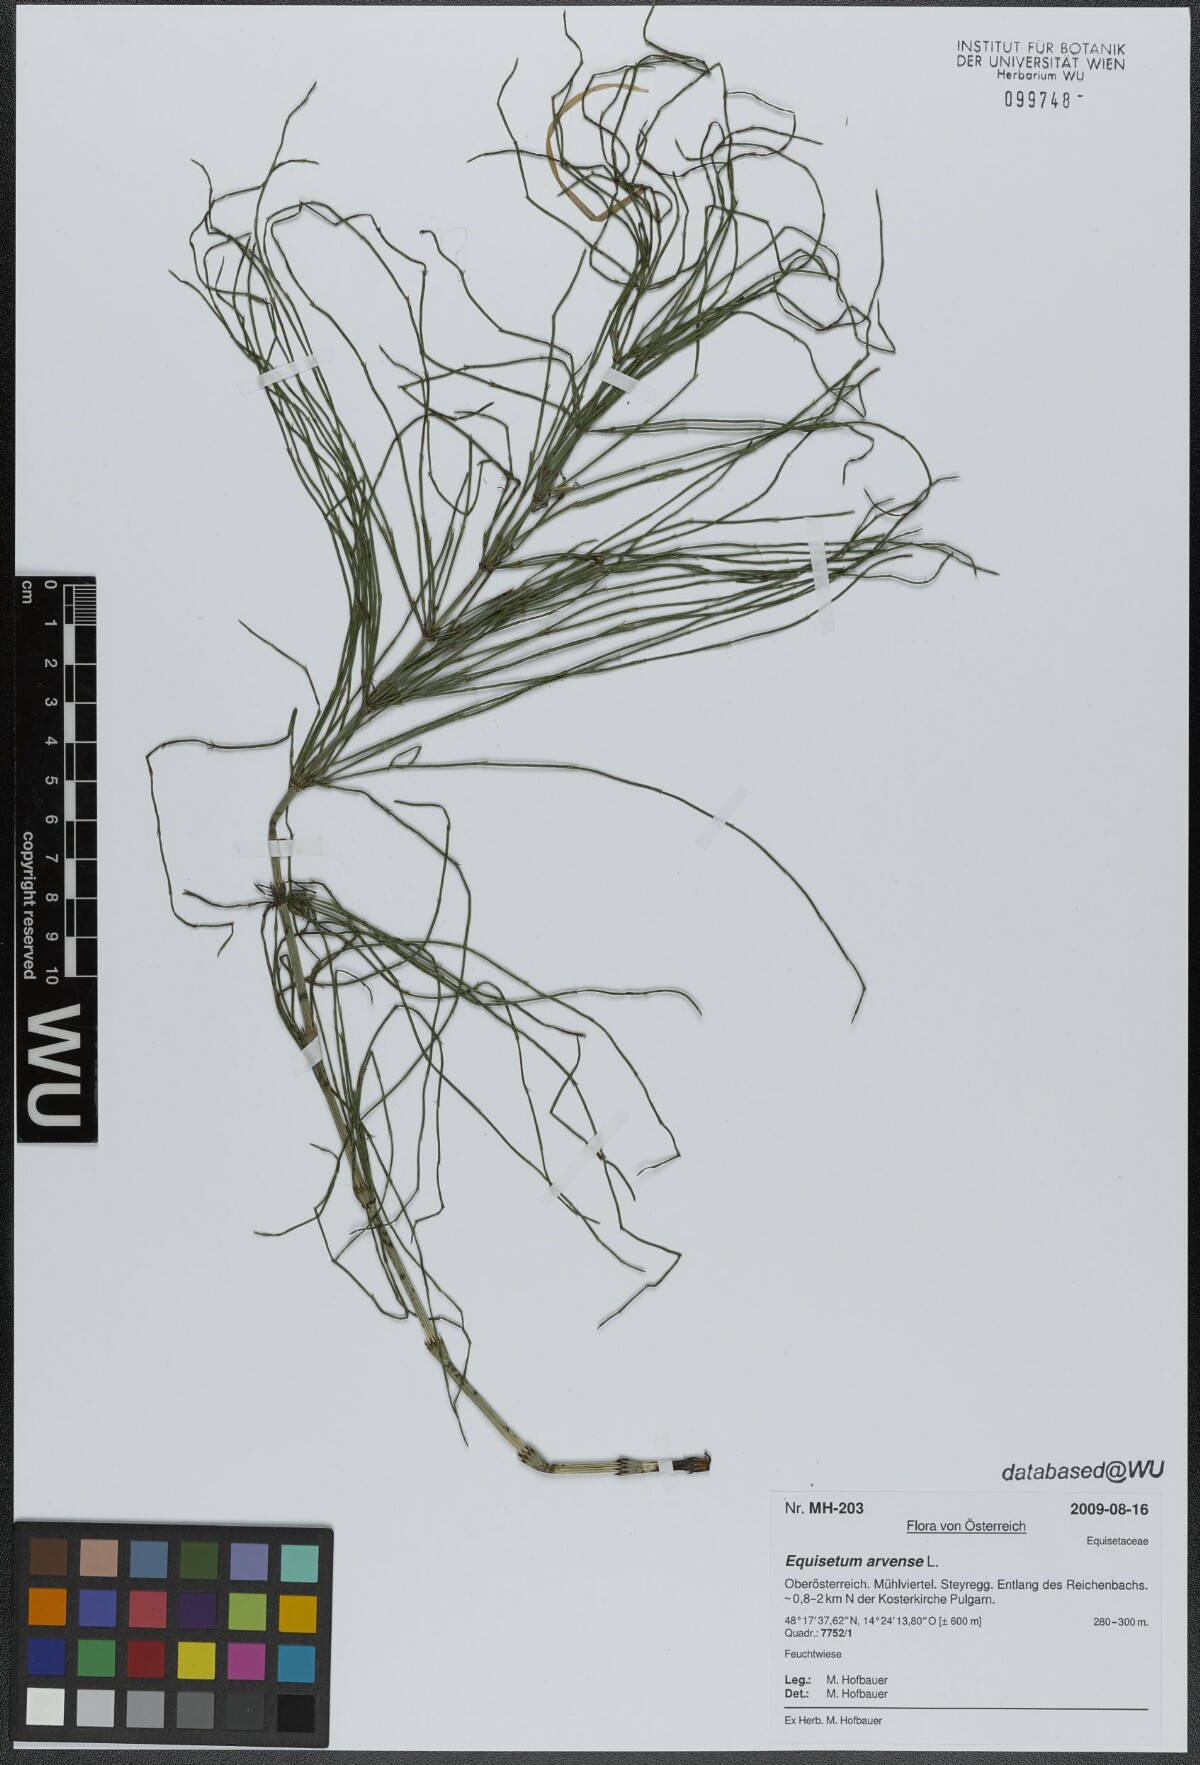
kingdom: Plantae
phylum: Tracheophyta
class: Polypodiopsida
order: Equisetales
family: Equisetaceae
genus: Equisetum
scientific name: Equisetum arvense
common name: Field horsetail
